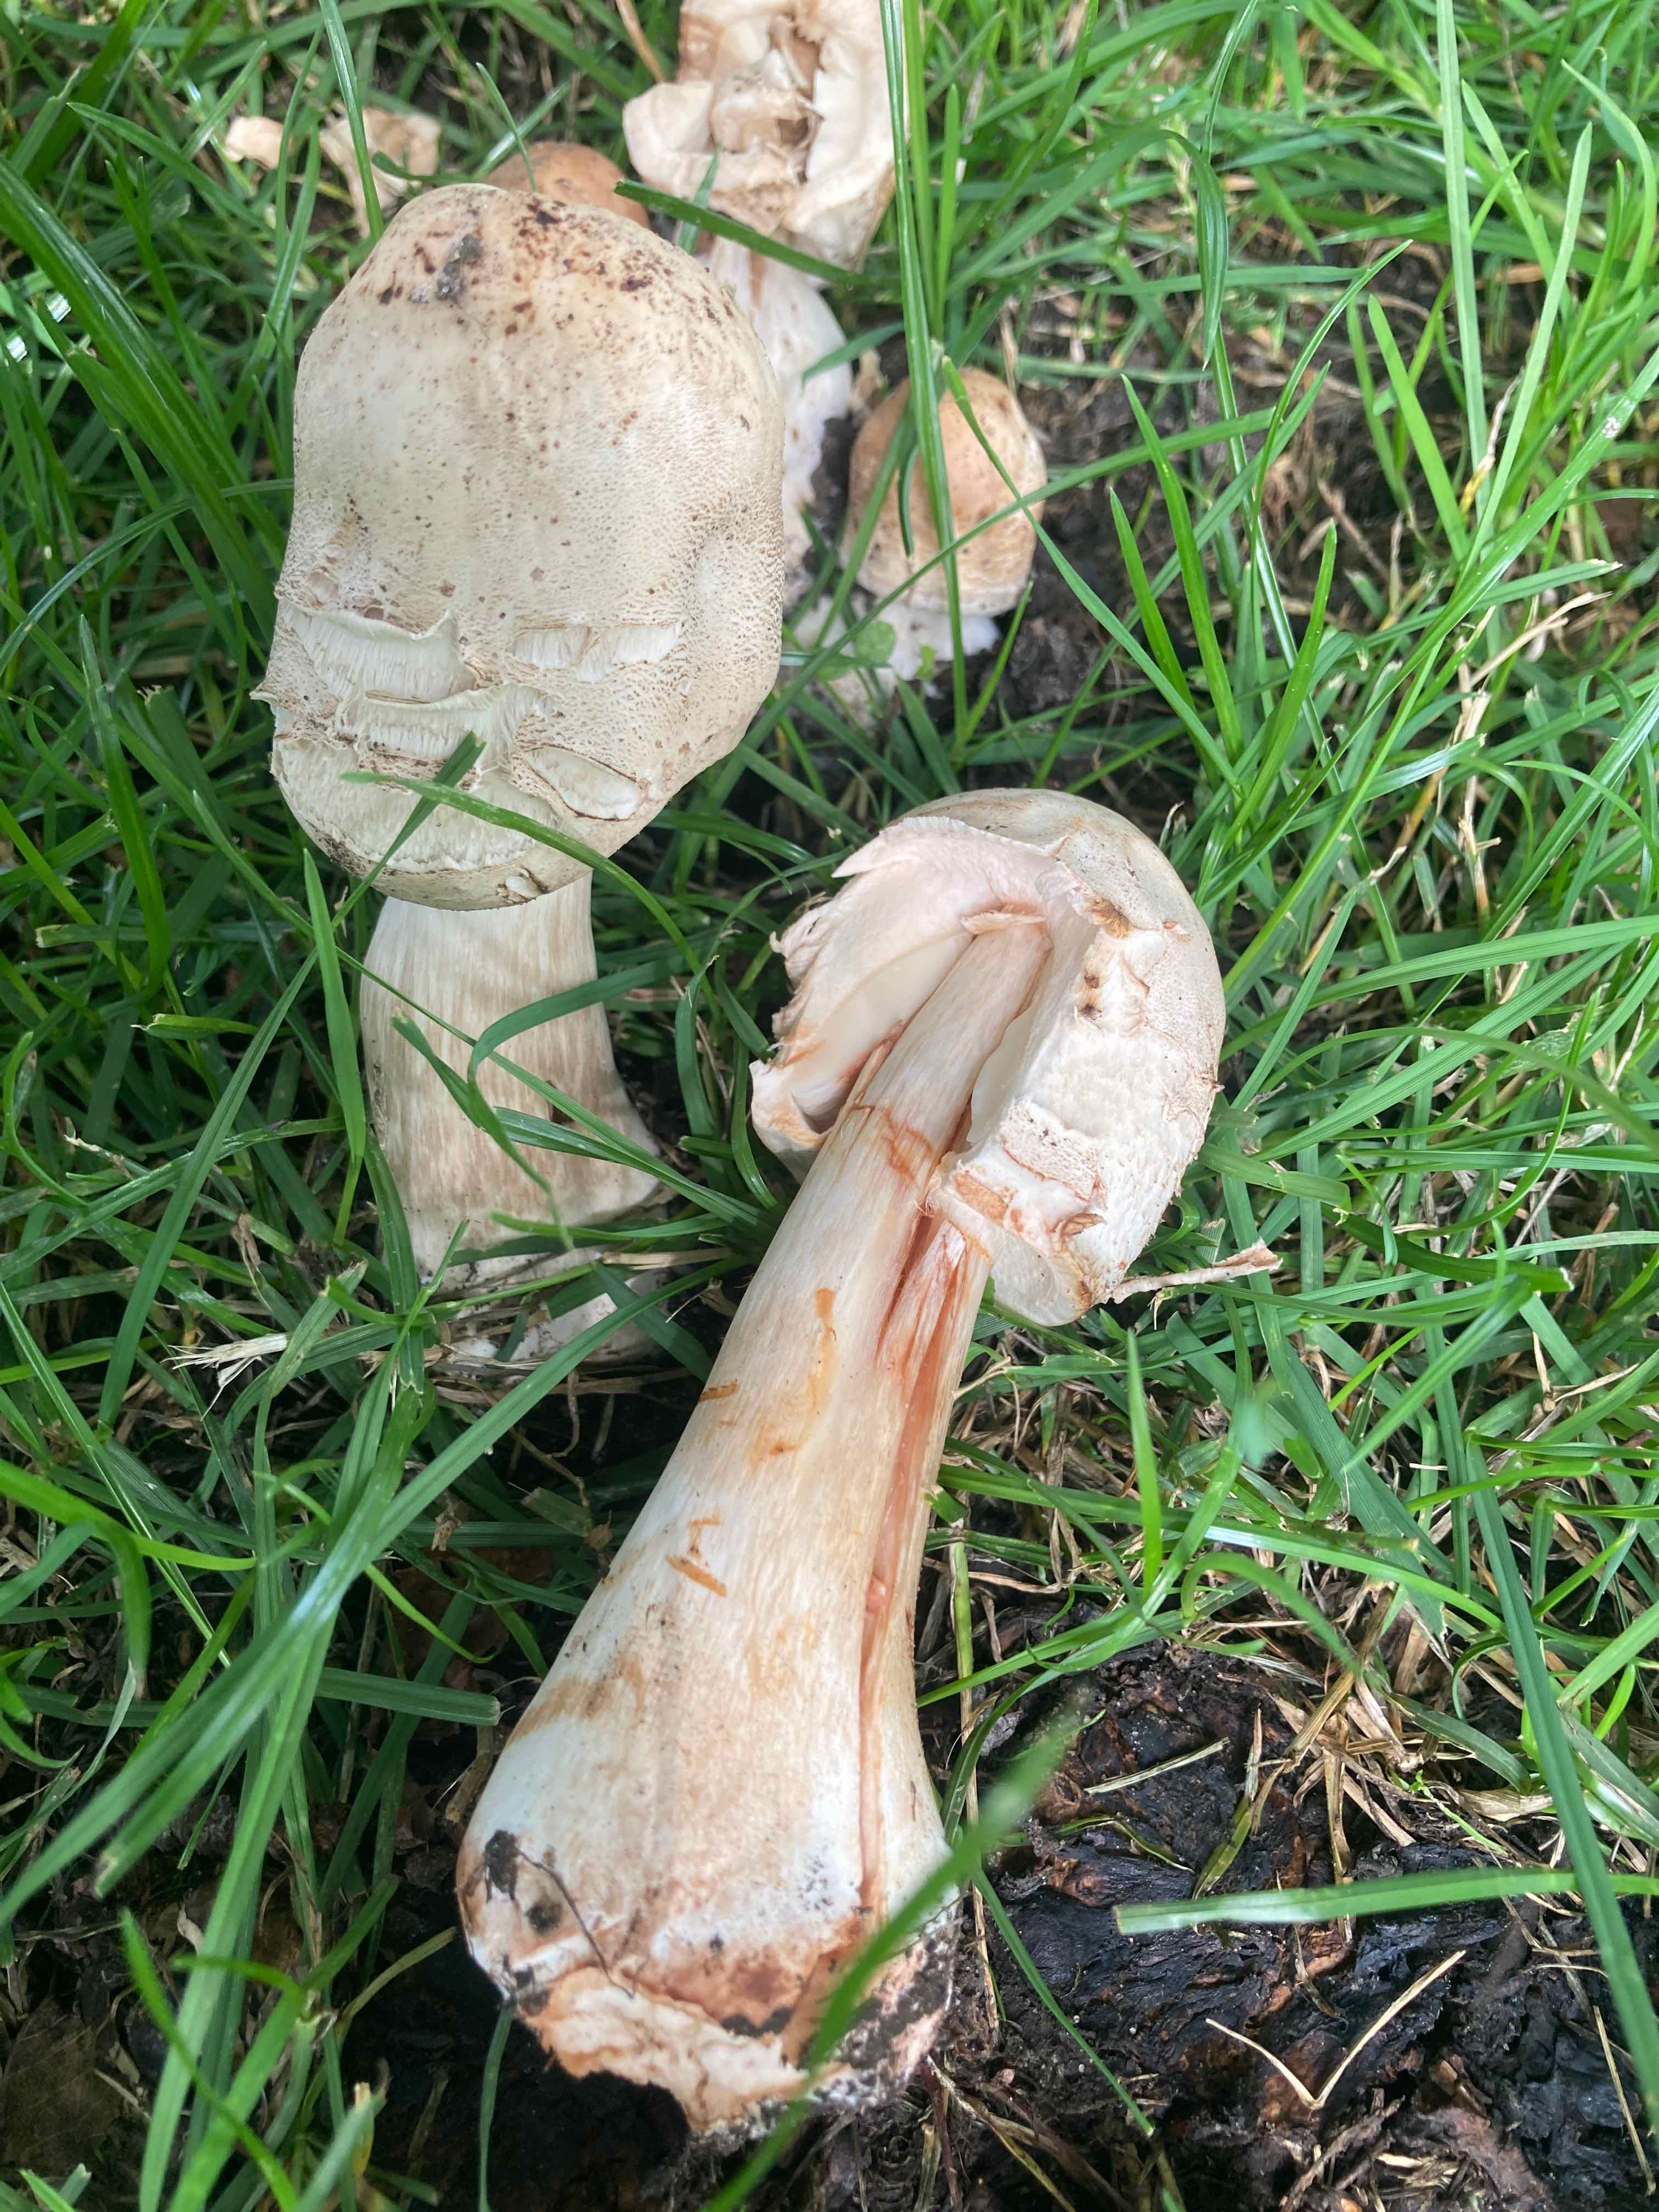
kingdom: Fungi
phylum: Basidiomycota
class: Agaricomycetes
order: Agaricales
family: Agaricaceae
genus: Chlorophyllum
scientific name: Chlorophyllum brunneum
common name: giftig rabarberhat
